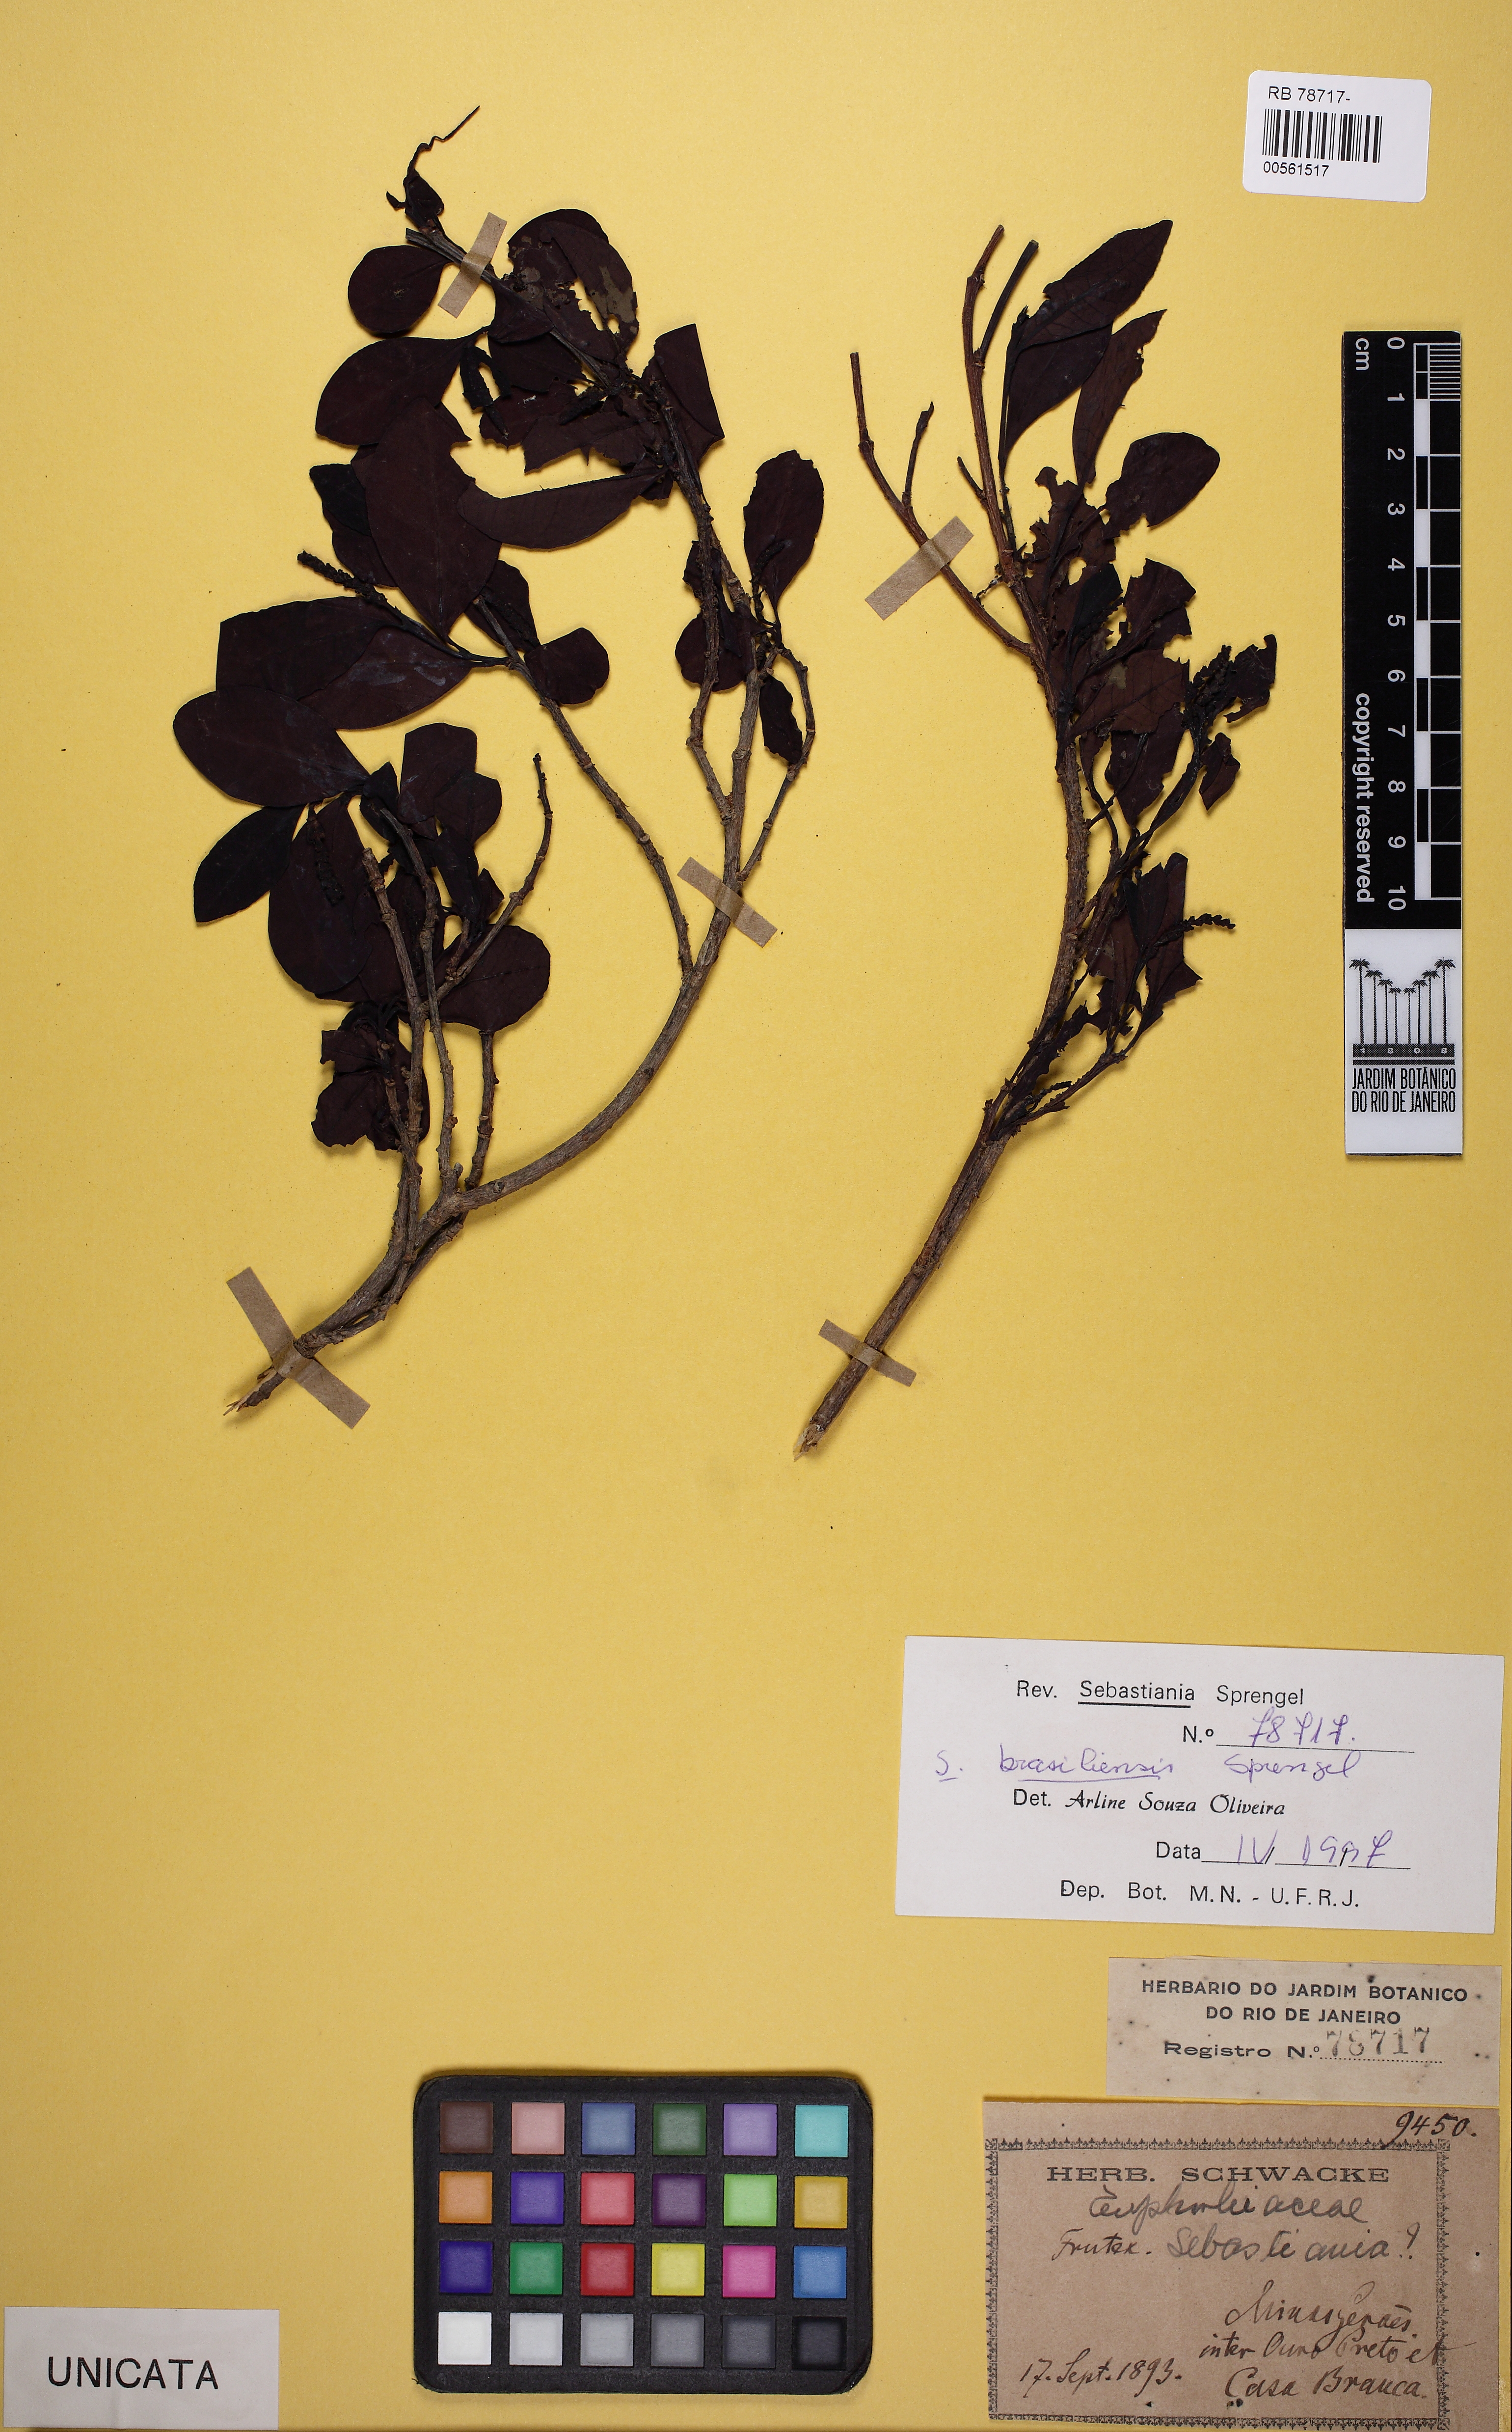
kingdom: Plantae
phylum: Tracheophyta
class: Magnoliopsida
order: Malpighiales
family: Euphorbiaceae
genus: Sebastiania
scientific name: Sebastiania brasiliensis
